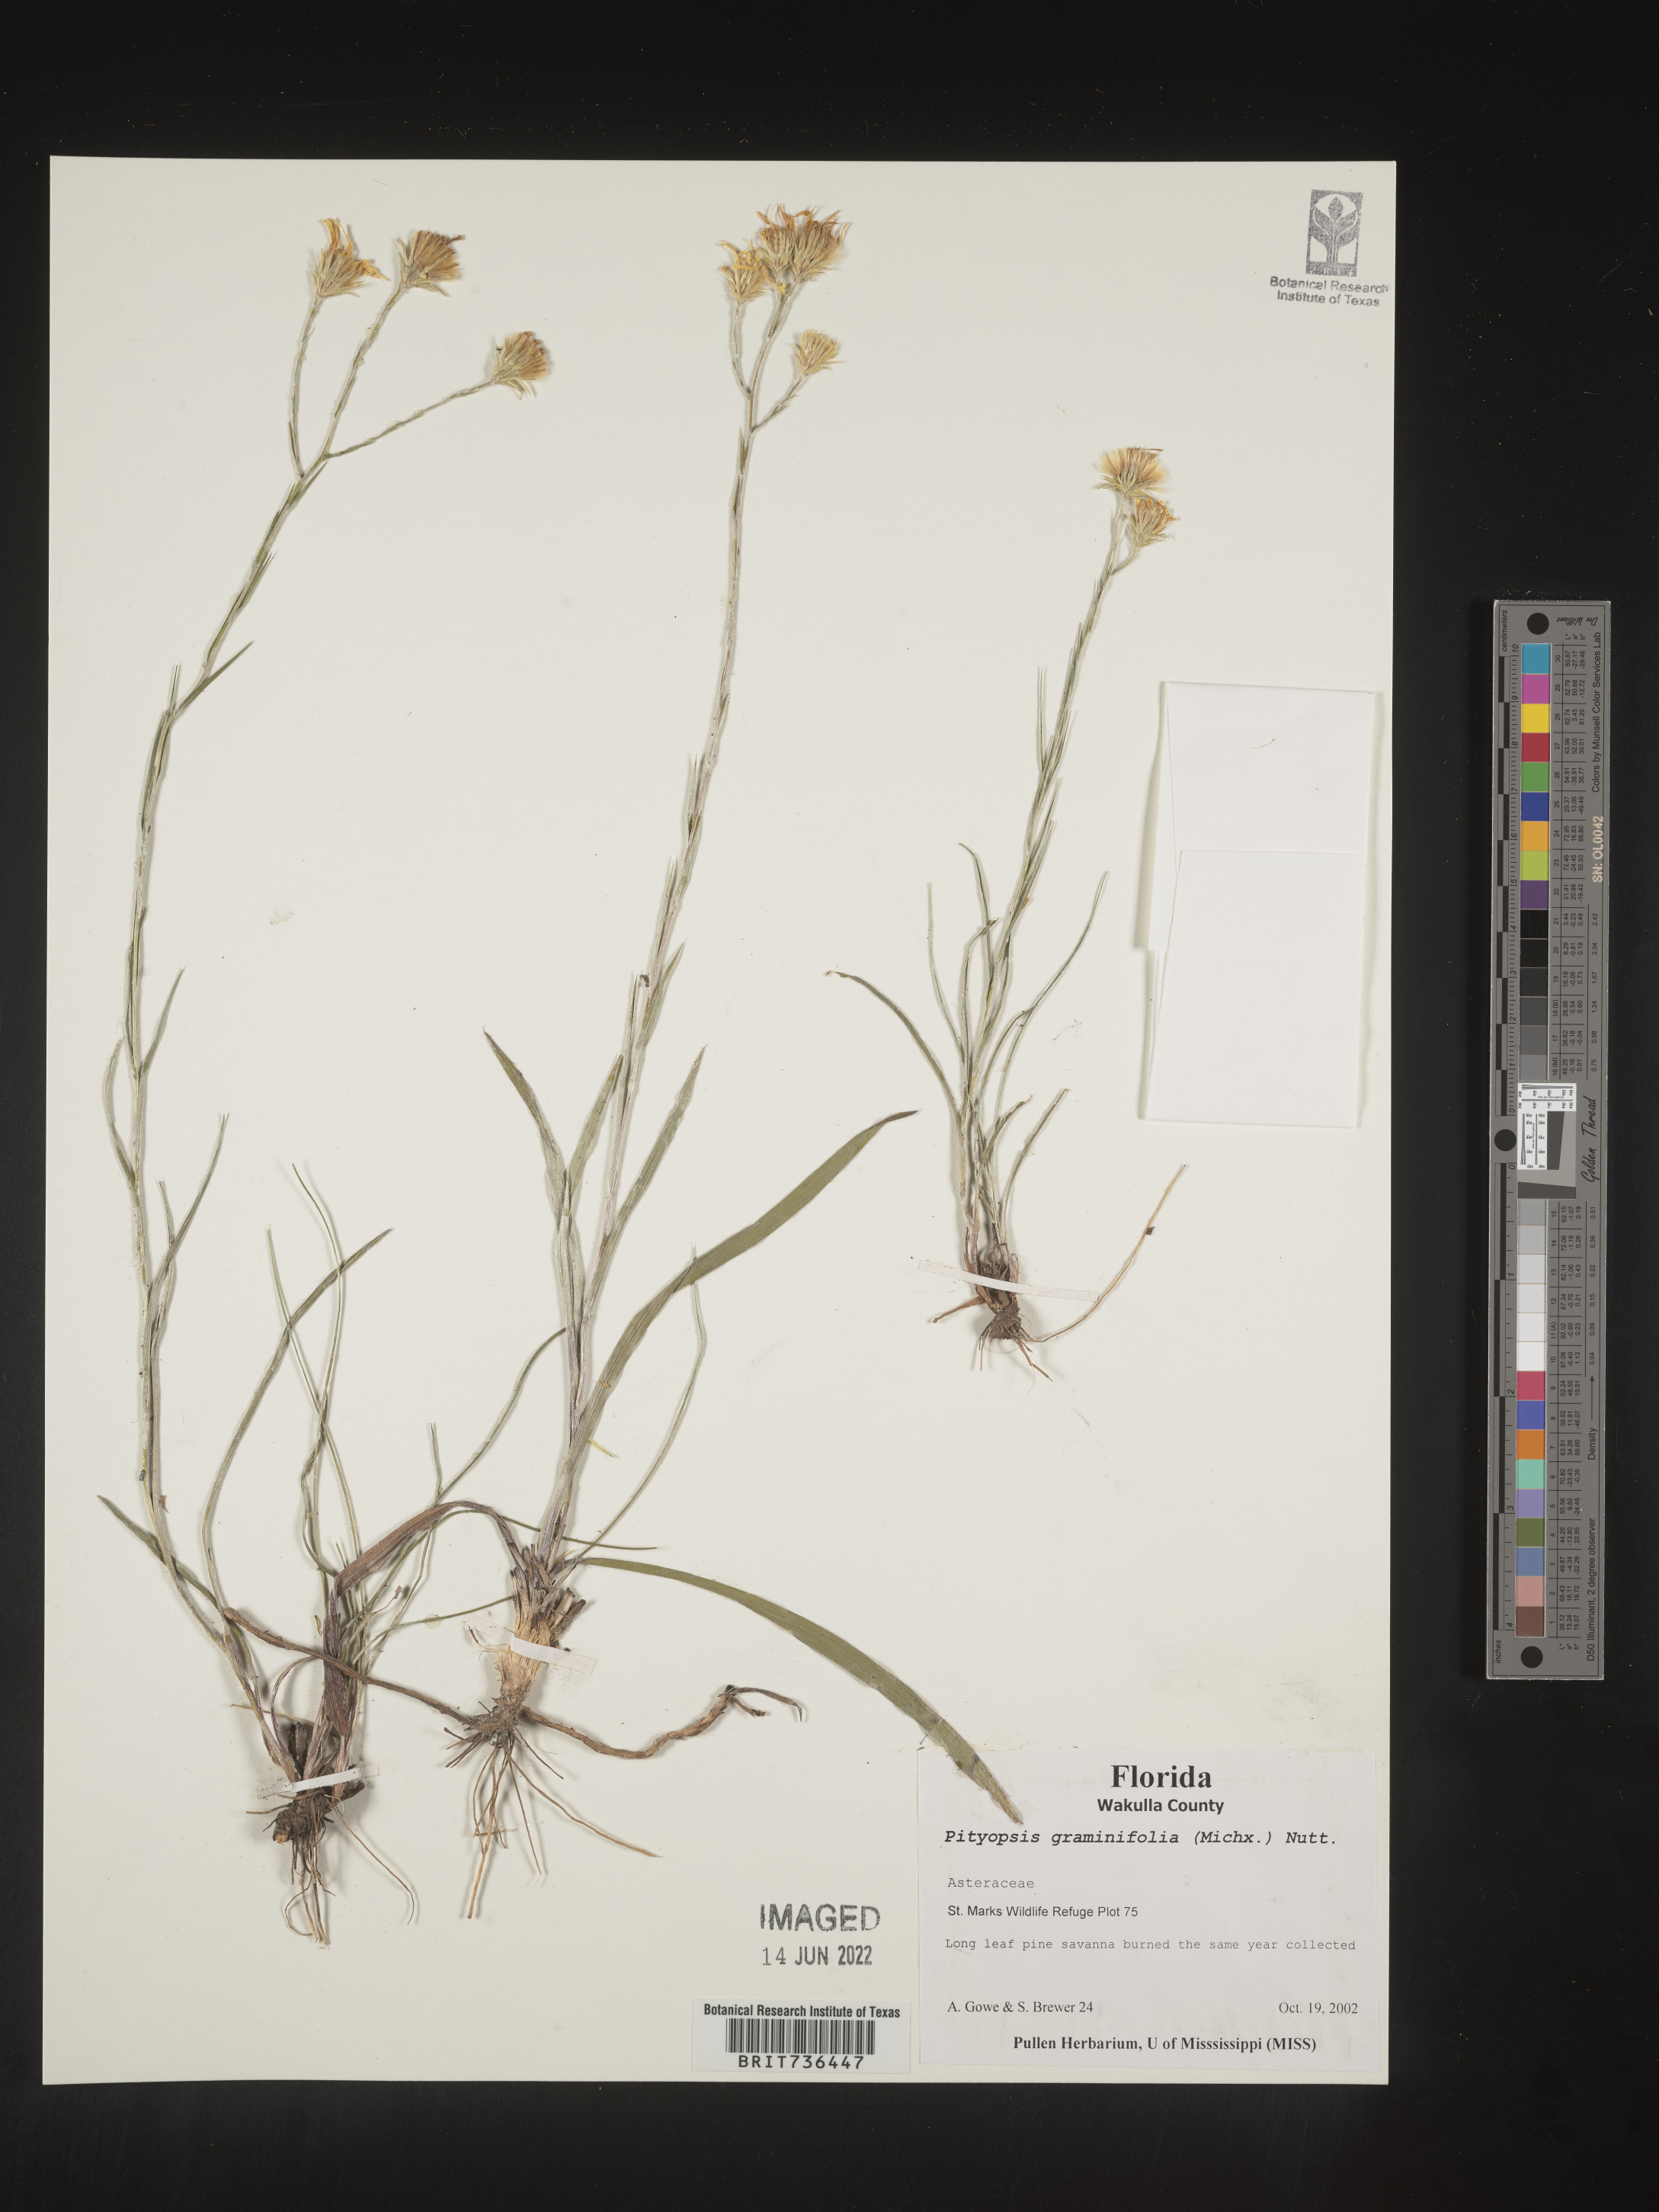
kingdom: Plantae
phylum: Tracheophyta
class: Magnoliopsida
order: Asterales
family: Asteraceae
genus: Pityopsis
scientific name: Pityopsis tracyi
